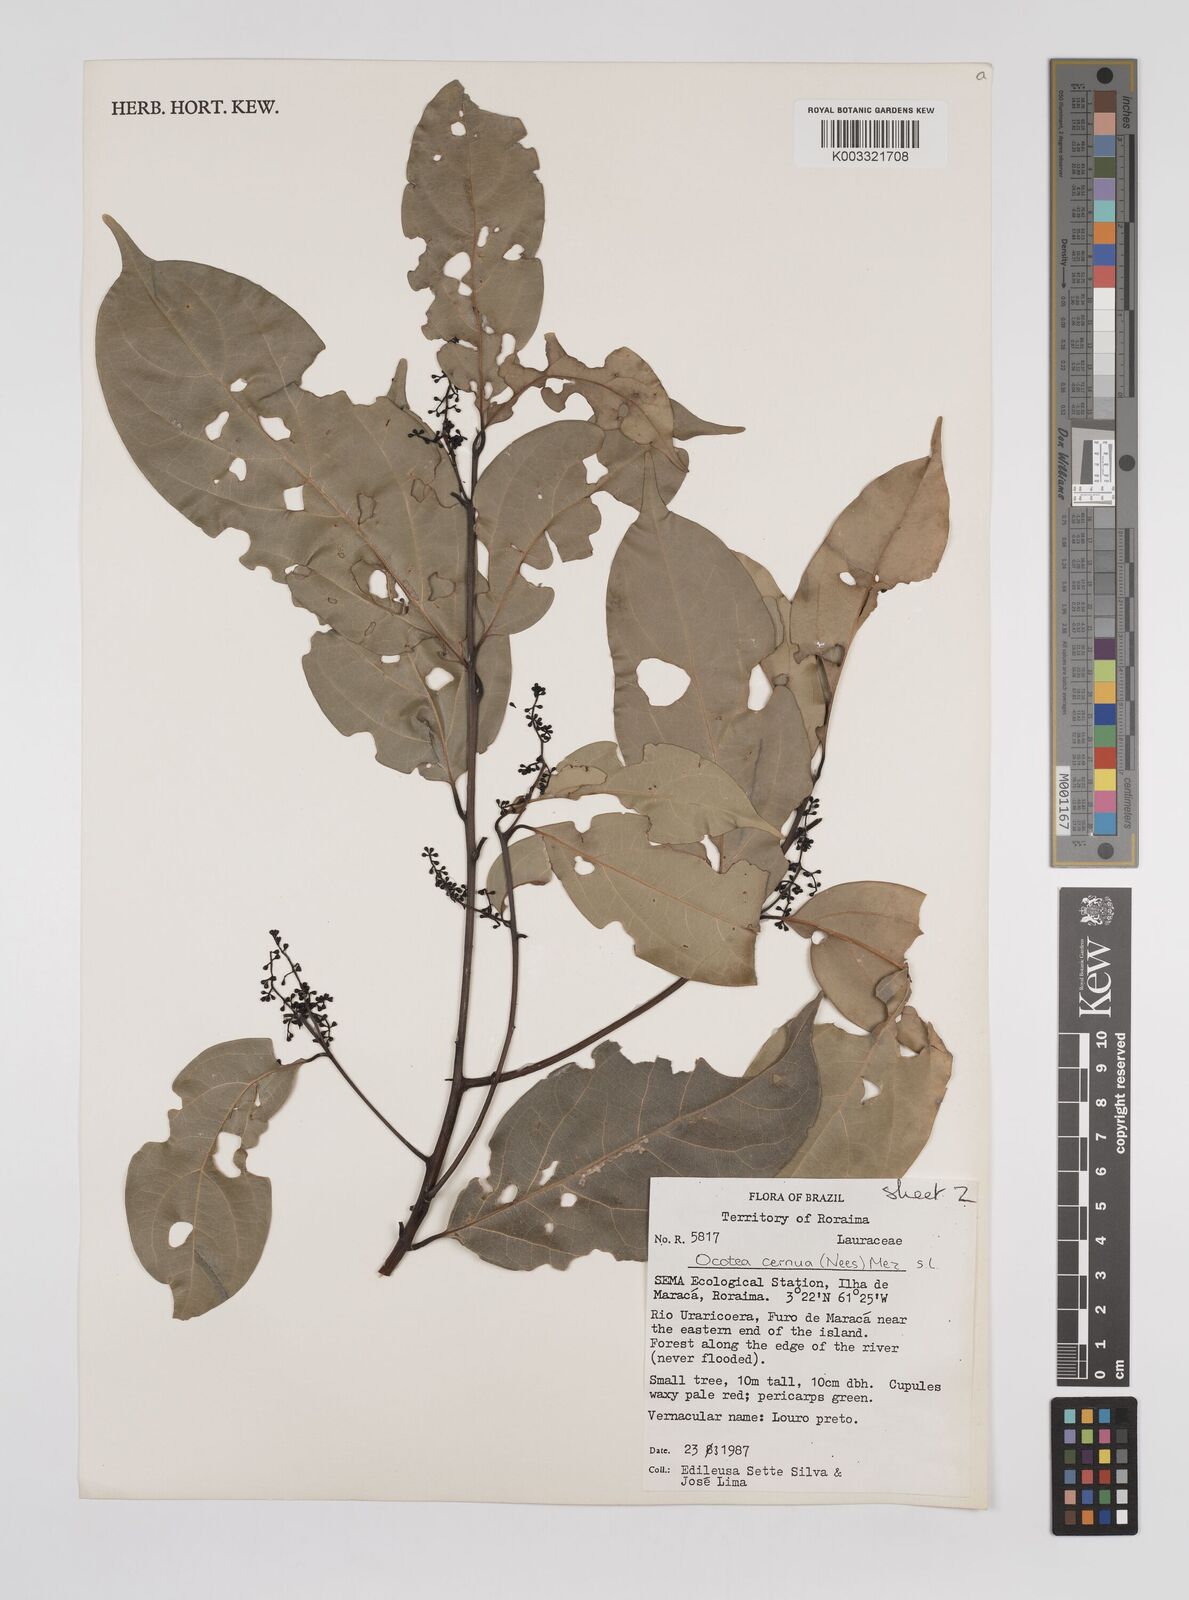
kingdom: Plantae
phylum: Tracheophyta
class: Magnoliopsida
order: Laurales
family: Lauraceae
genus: Ocotea
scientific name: Ocotea leptobotra
